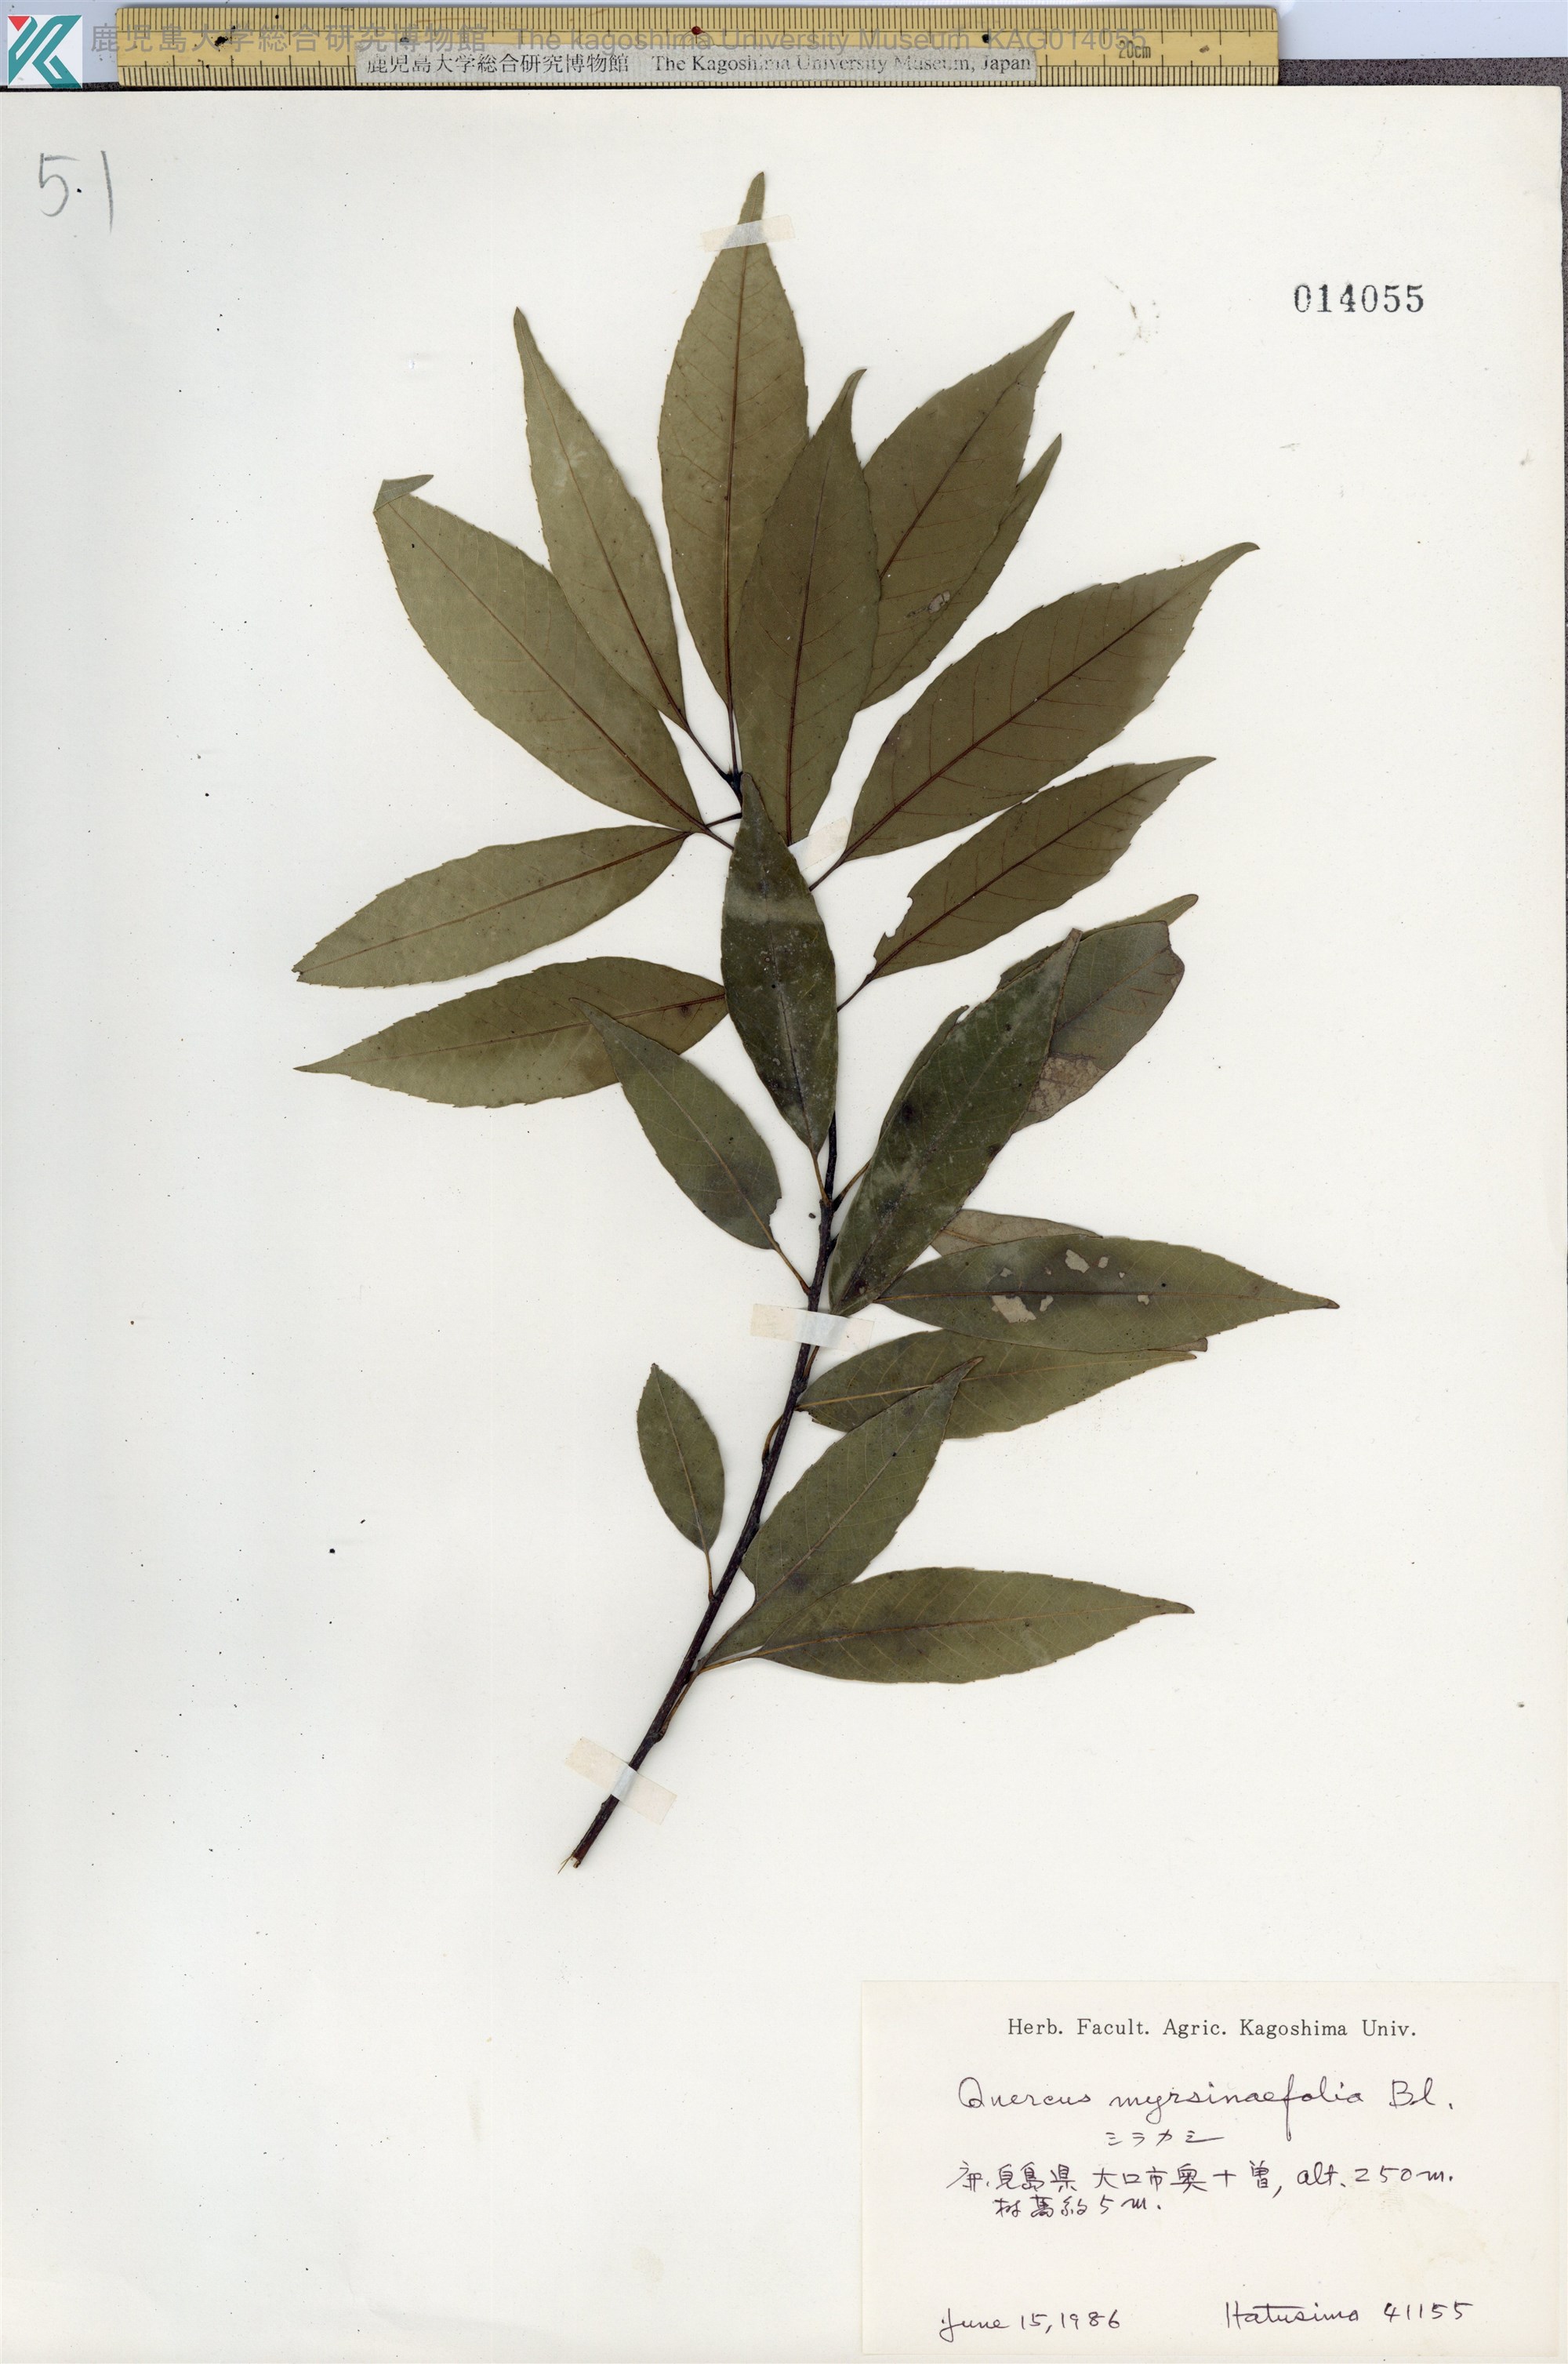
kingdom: Plantae
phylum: Tracheophyta
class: Magnoliopsida
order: Fagales
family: Fagaceae
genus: Quercus
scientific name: Quercus myrsinaefolia
